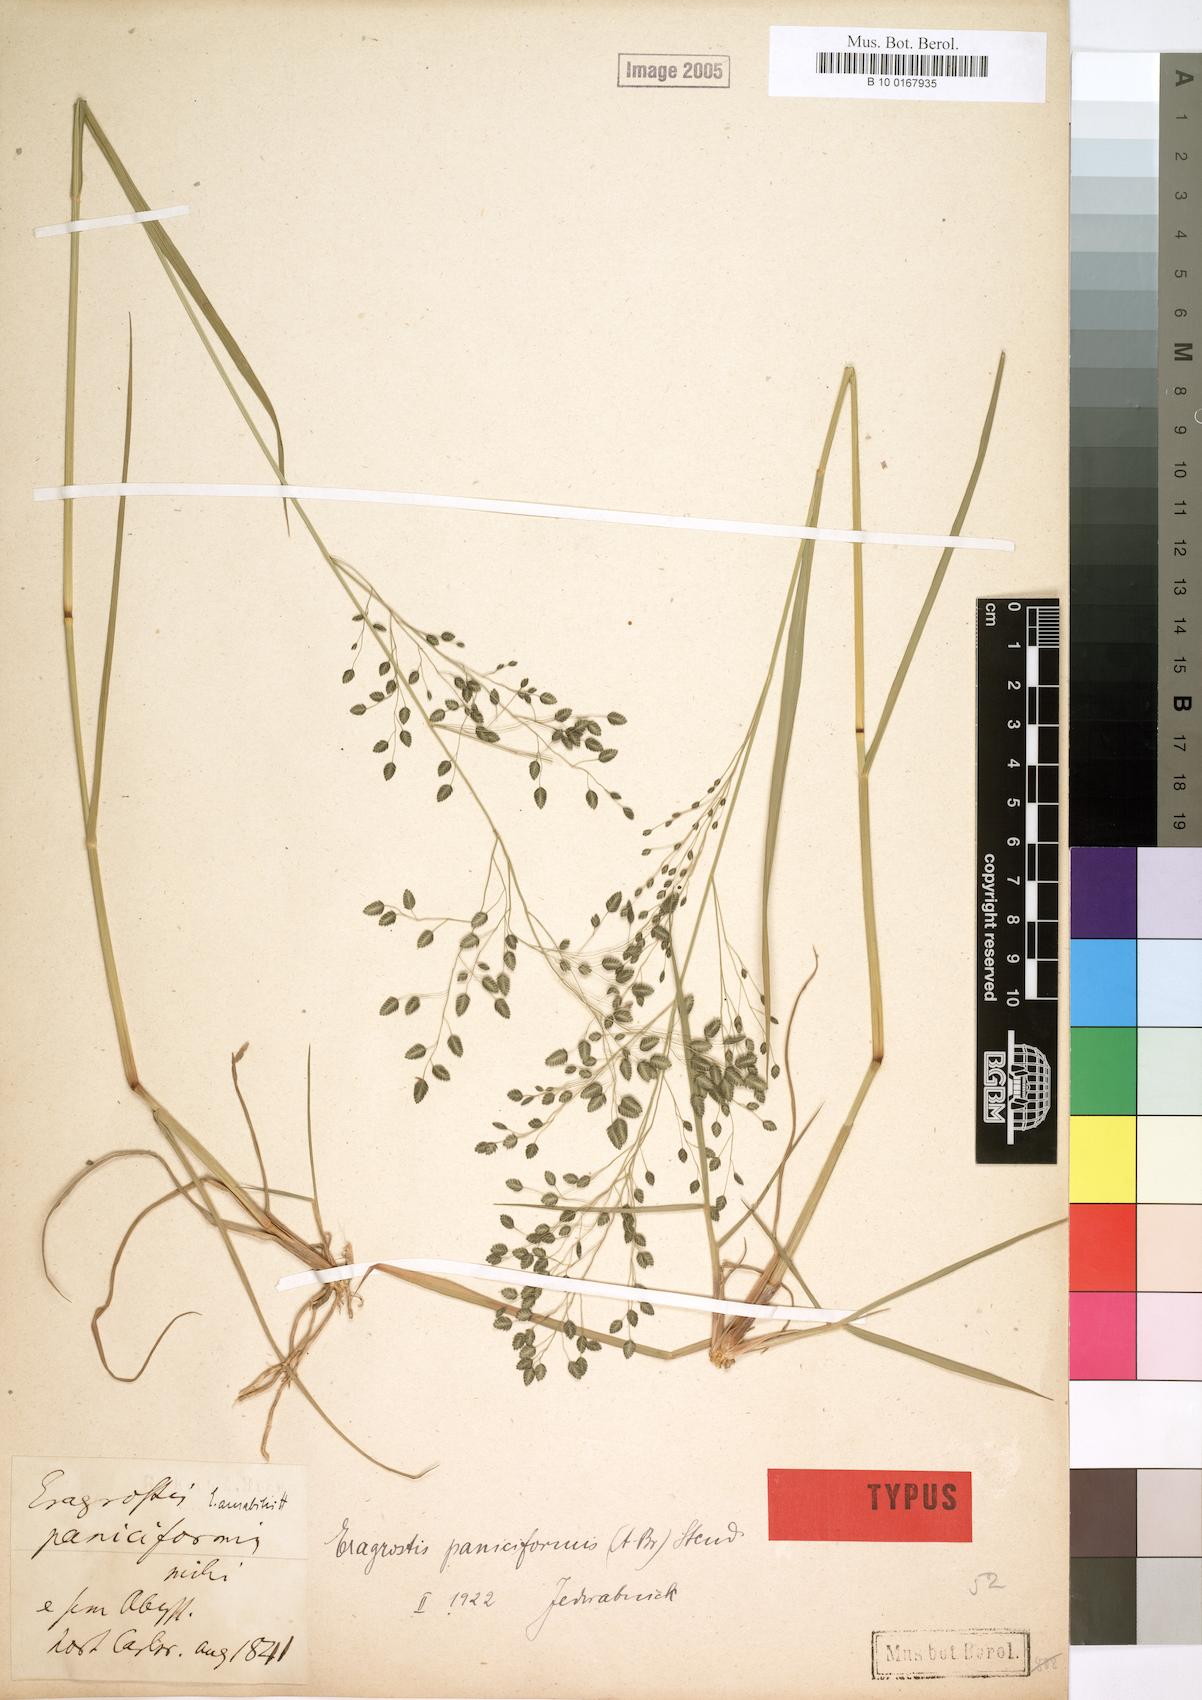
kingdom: Plantae
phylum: Tracheophyta
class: Liliopsida
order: Poales
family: Poaceae
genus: Eragrostis
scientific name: Eragrostis paniciformis
